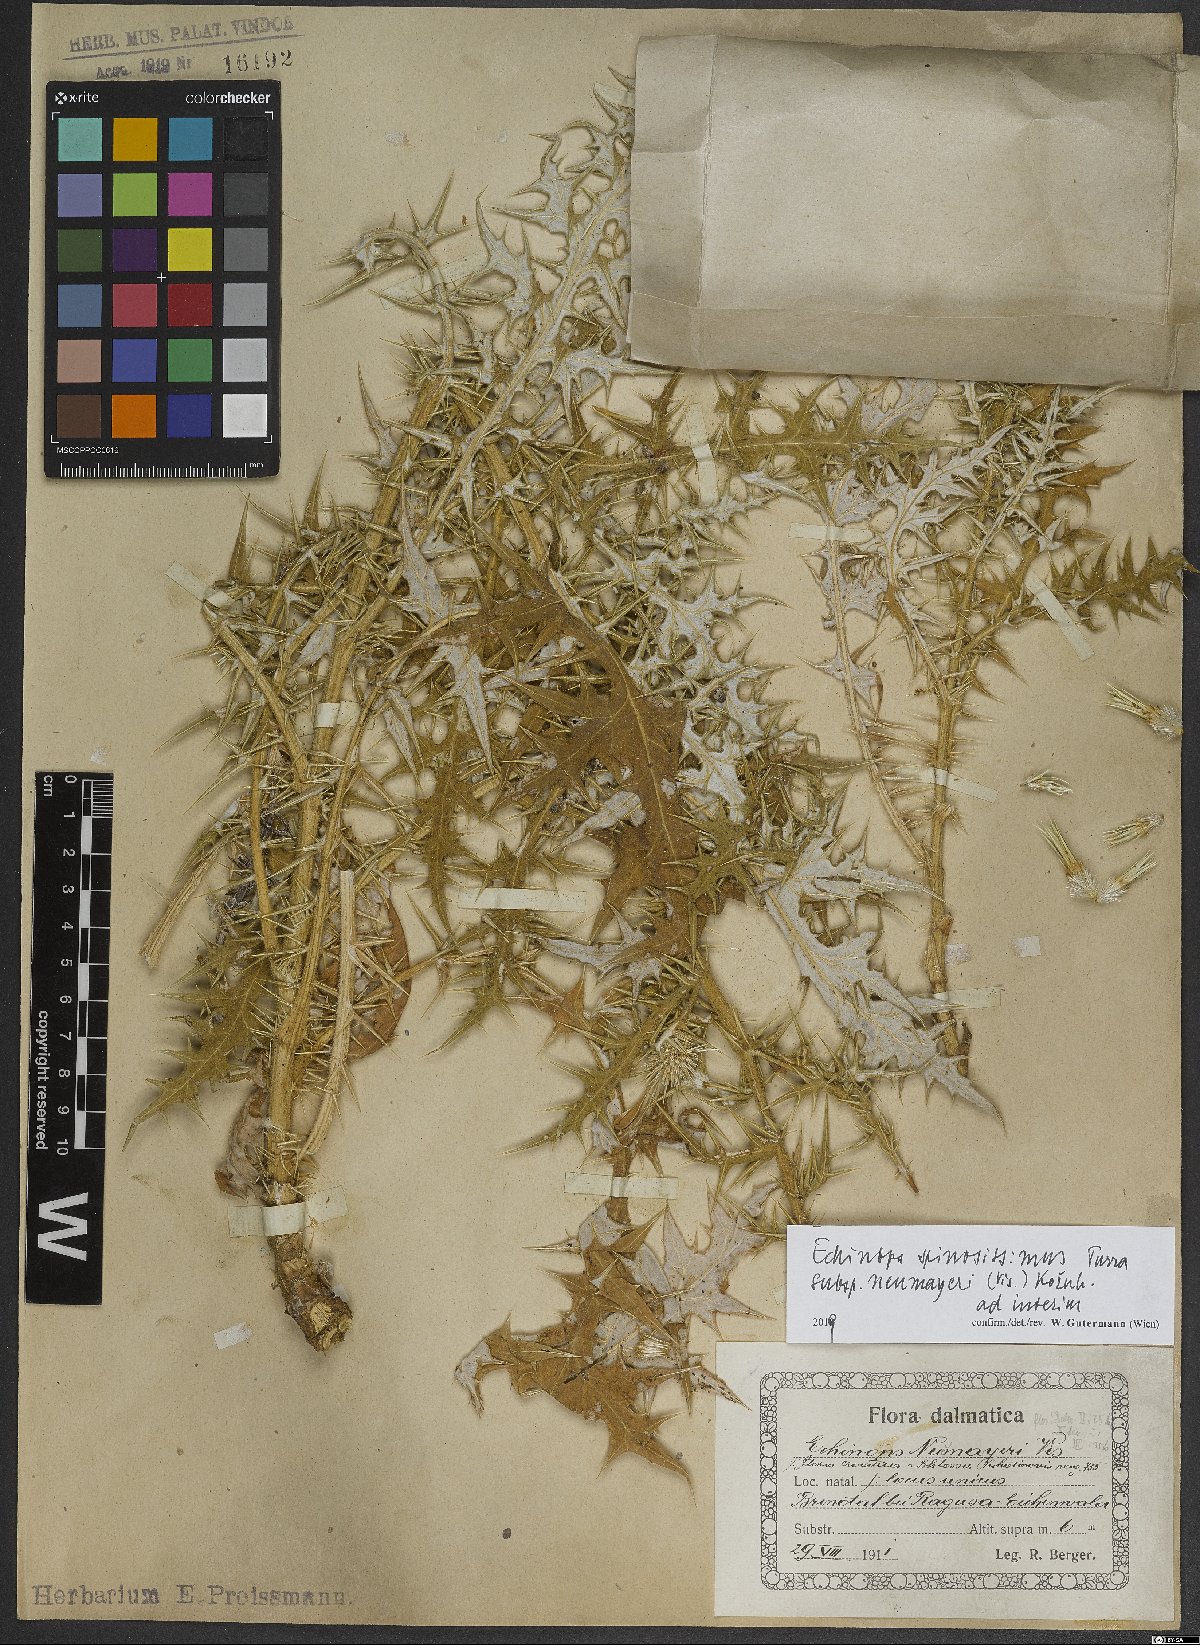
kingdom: Plantae
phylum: Tracheophyta
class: Magnoliopsida
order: Asterales
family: Asteraceae
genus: Echinops
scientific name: Echinops spinosissimus
